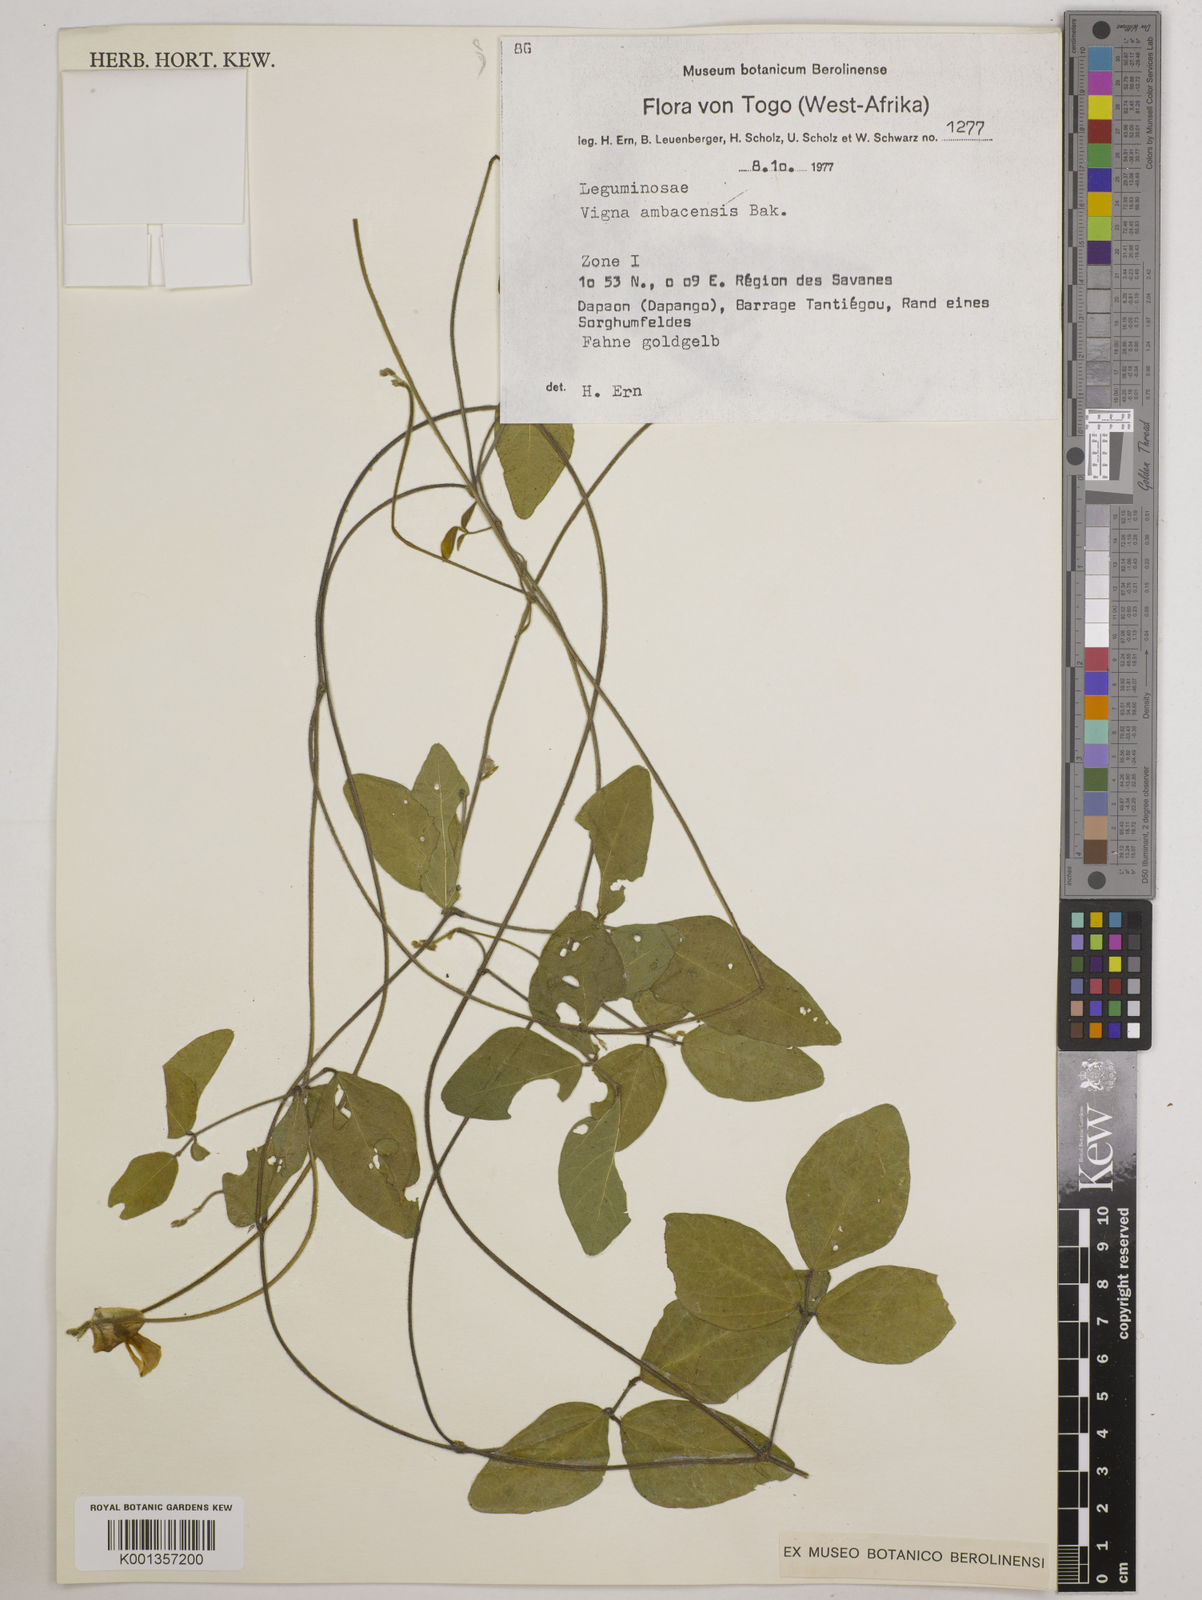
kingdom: Plantae
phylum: Tracheophyta
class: Magnoliopsida
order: Fabales
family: Fabaceae
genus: Vigna
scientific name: Vigna ambacensis
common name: Tsarkiyan zomo
